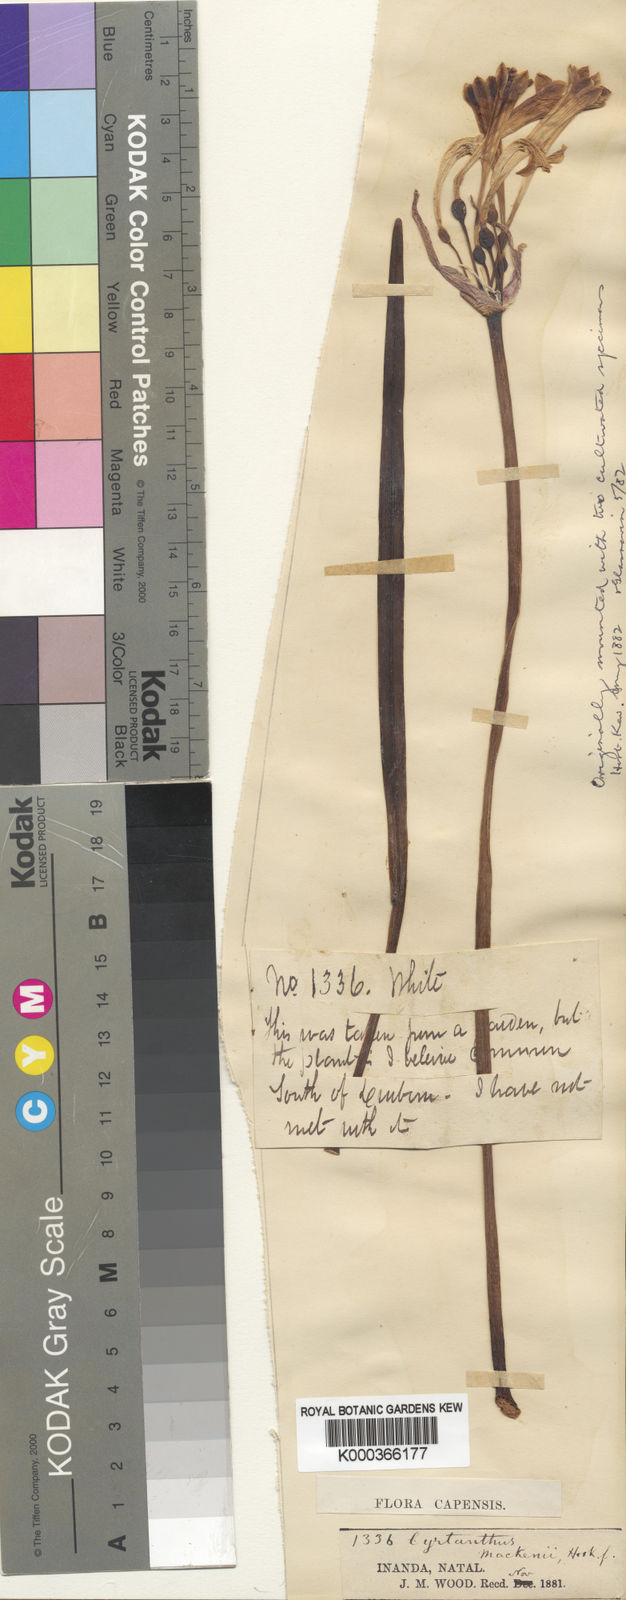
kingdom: Plantae
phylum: Tracheophyta
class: Liliopsida
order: Asparagales
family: Amaryllidaceae
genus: Cyrtanthus
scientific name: Cyrtanthus mackenii
